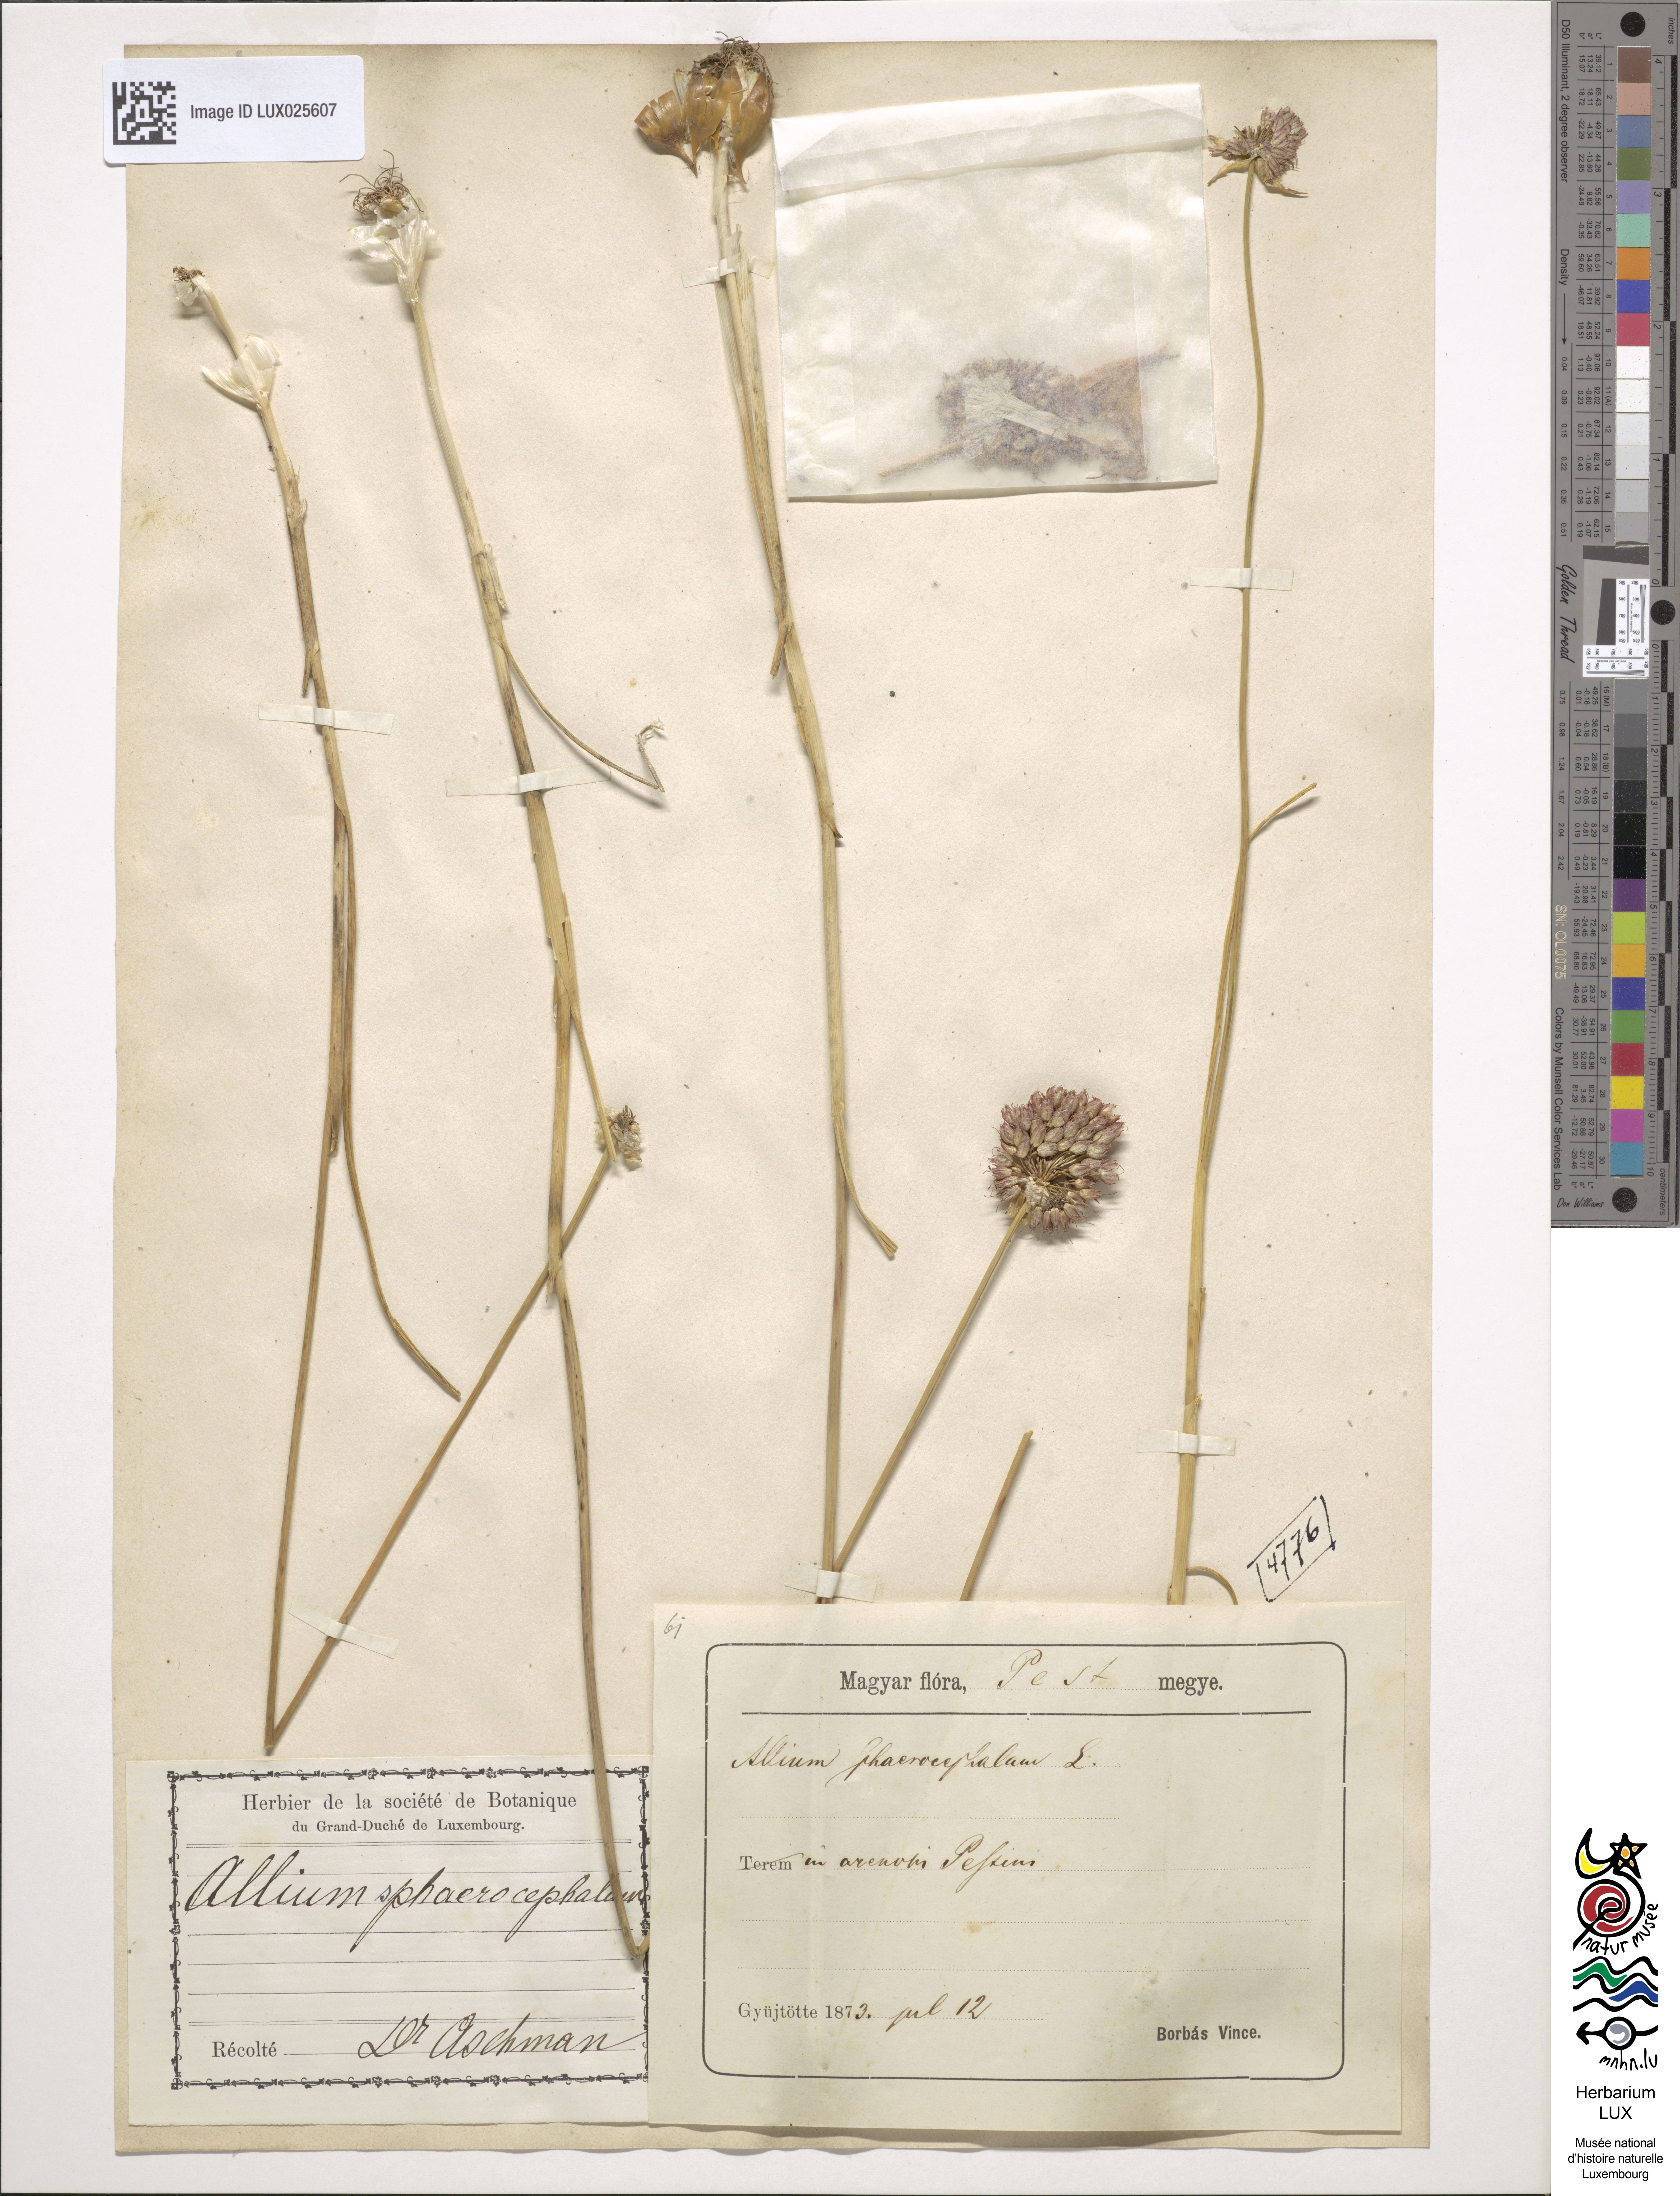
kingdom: Plantae
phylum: Tracheophyta
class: Liliopsida
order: Asparagales
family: Amaryllidaceae
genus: Allium
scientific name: Allium sphaerocephalon
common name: Round-headed leek
